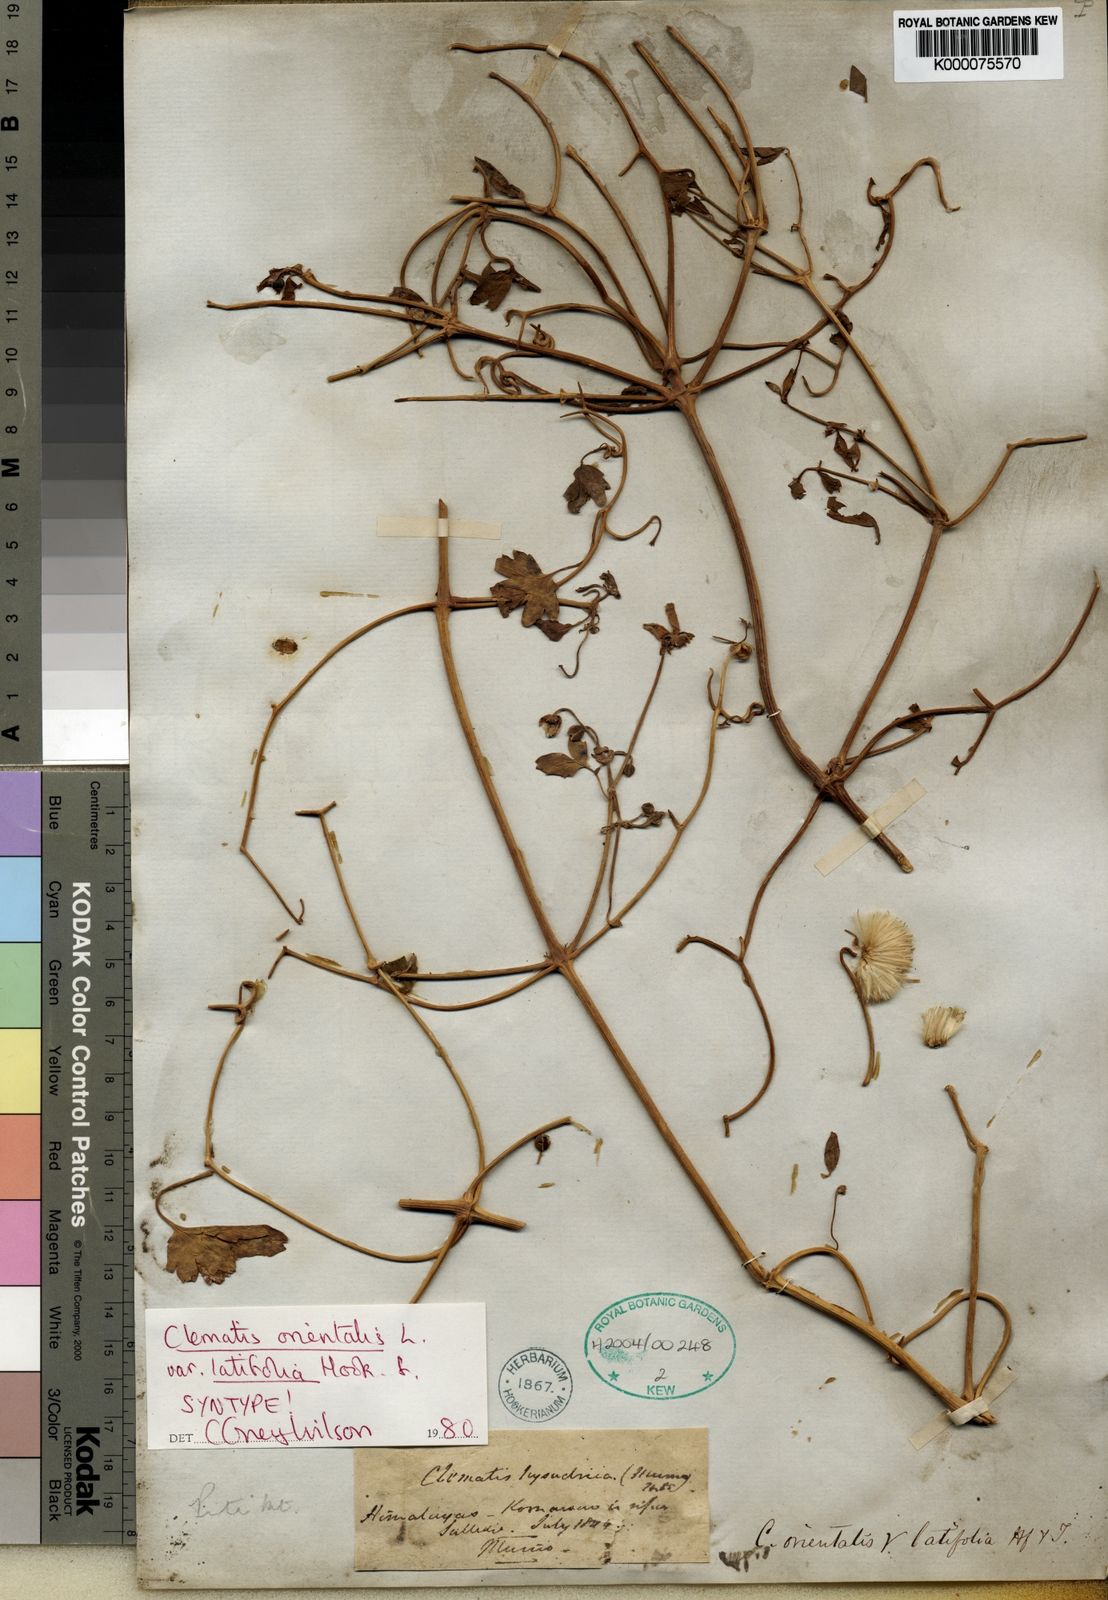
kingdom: Plantae
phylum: Tracheophyta
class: Magnoliopsida
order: Ranunculales
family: Ranunculaceae
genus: Clematis
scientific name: Clematis orientalis
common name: Oriental virgin's-bower
